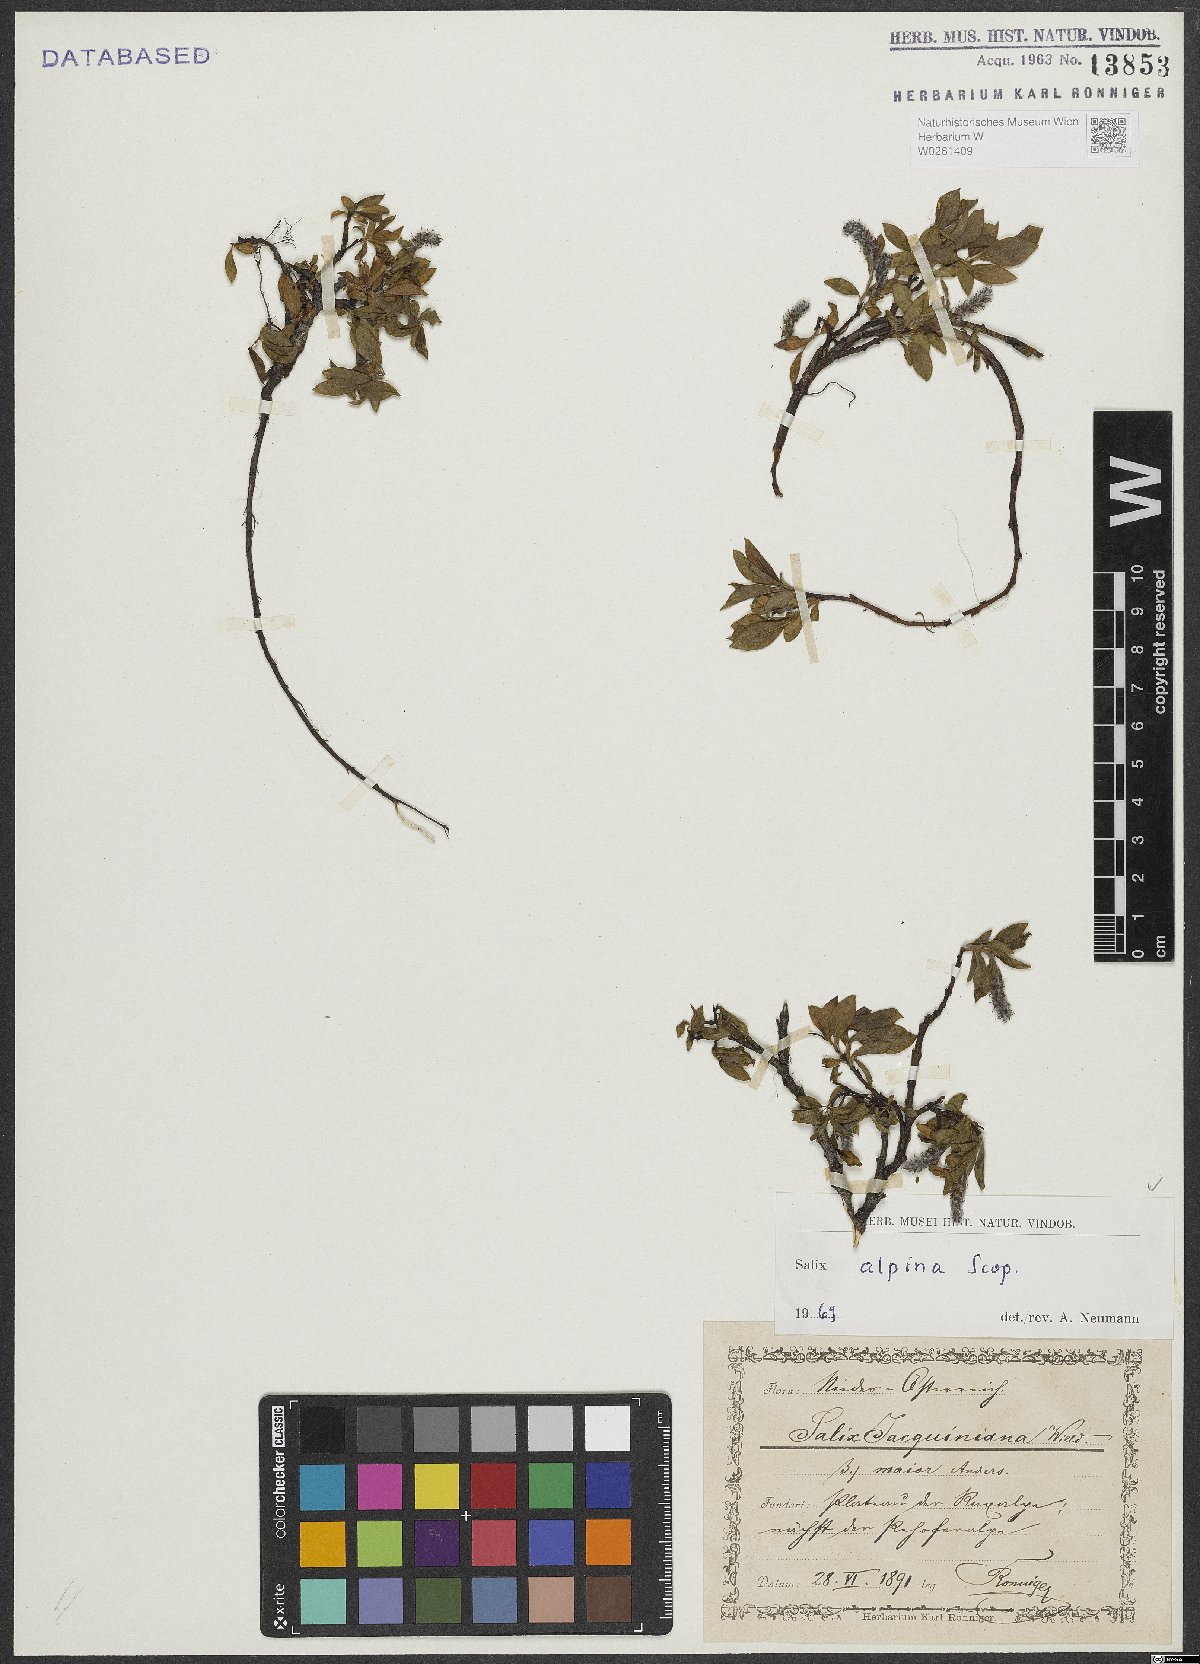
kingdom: Plantae
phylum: Tracheophyta
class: Magnoliopsida
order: Malpighiales
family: Salicaceae
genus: Salix
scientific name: Salix alpina
